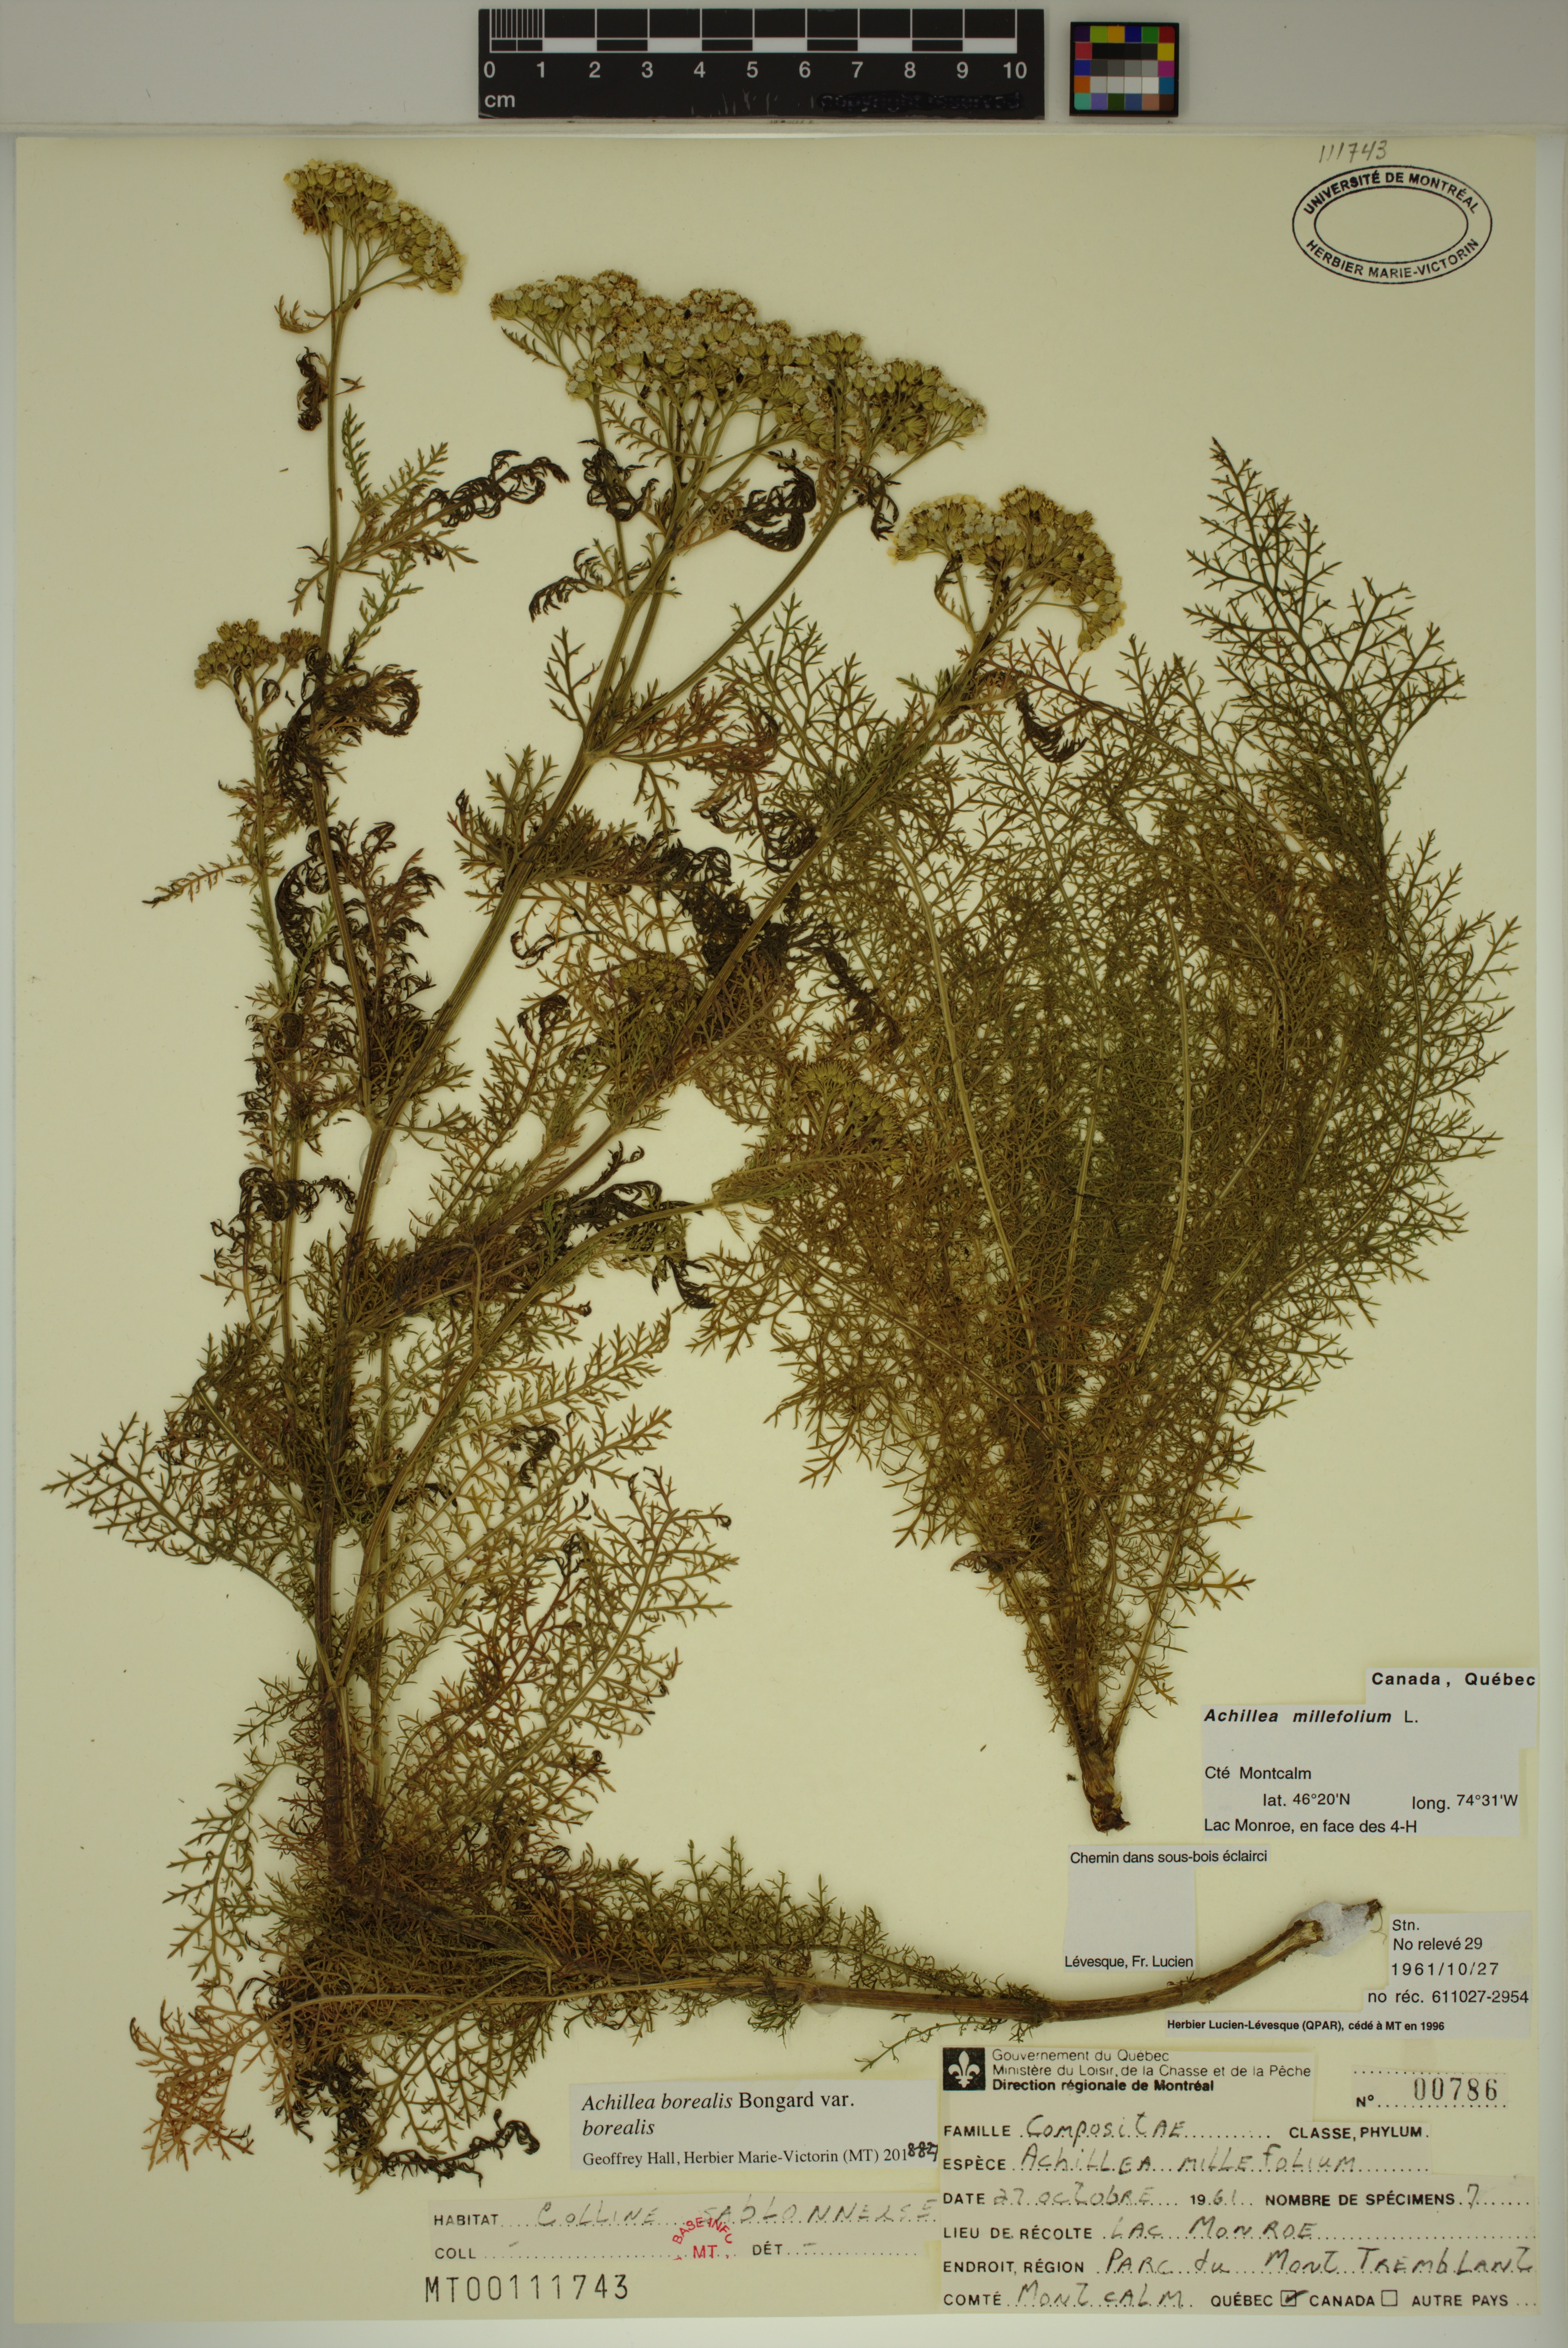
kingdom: Plantae
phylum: Tracheophyta
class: Magnoliopsida
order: Asterales
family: Asteraceae
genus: Achillea
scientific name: Achillea millefolium
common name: Yarrow
